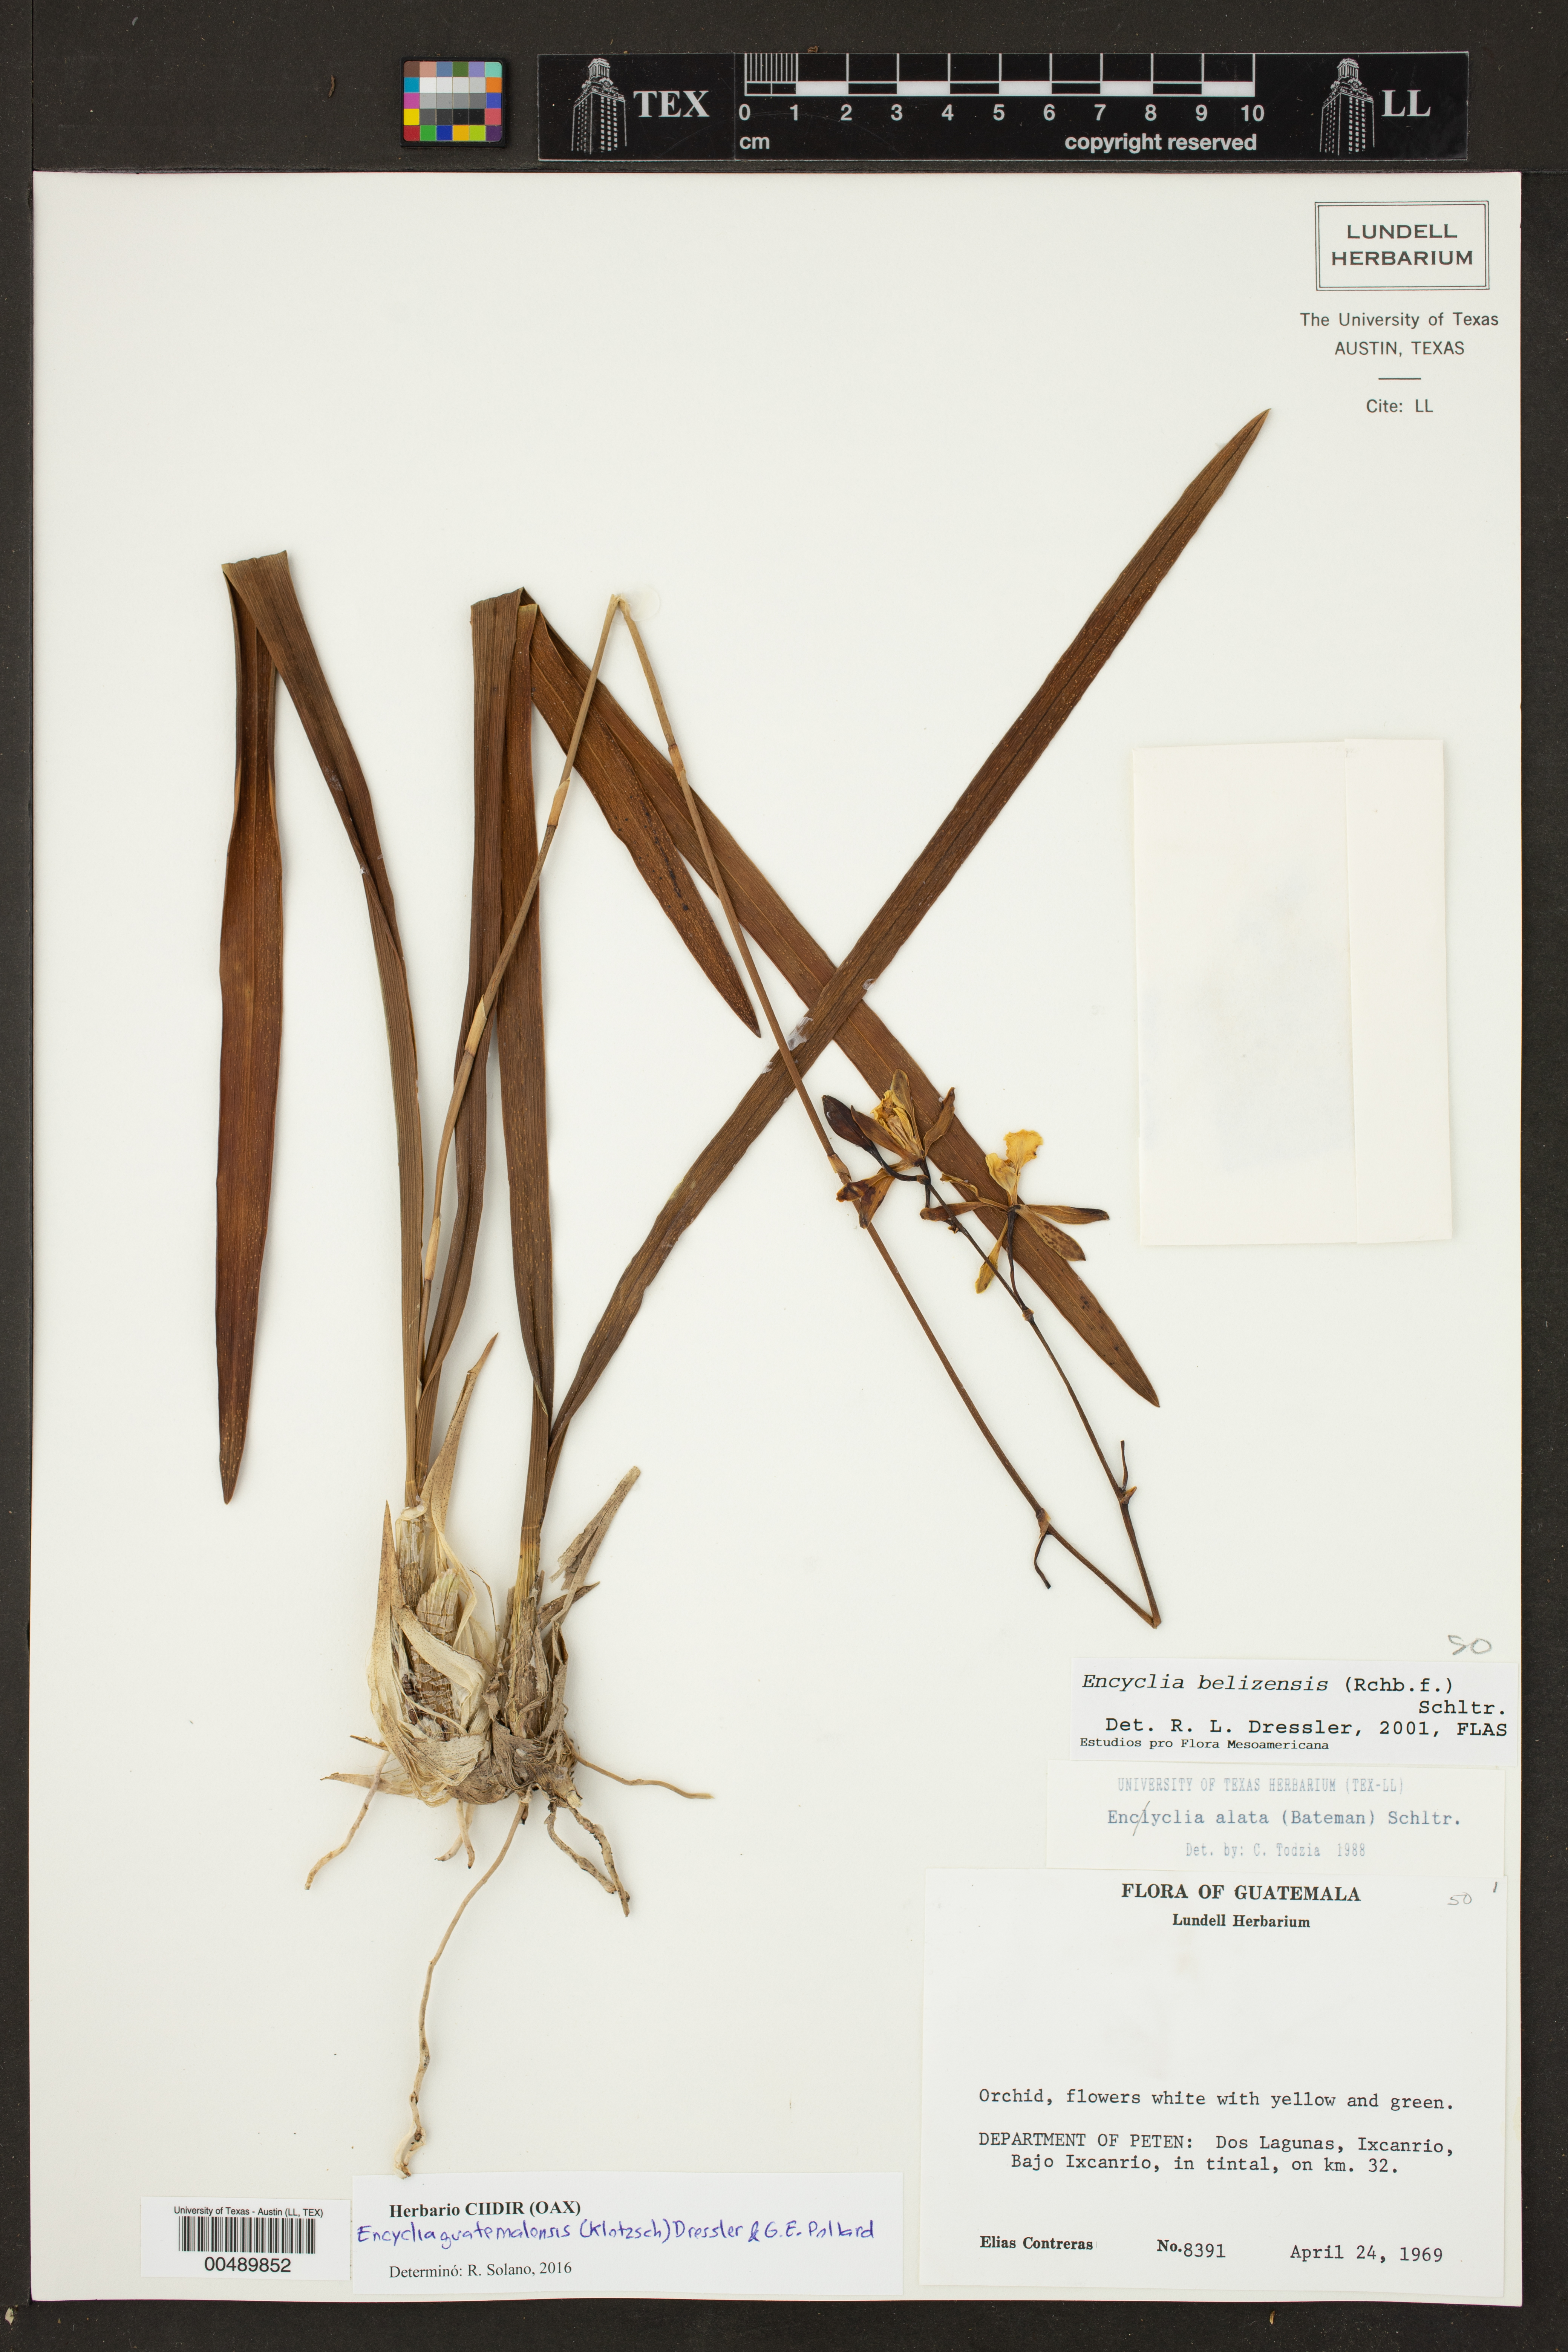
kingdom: Plantae
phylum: Tracheophyta
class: Liliopsida
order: Asparagales
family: Orchidaceae
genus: Encyclia
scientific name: Encyclia guatemalensis
